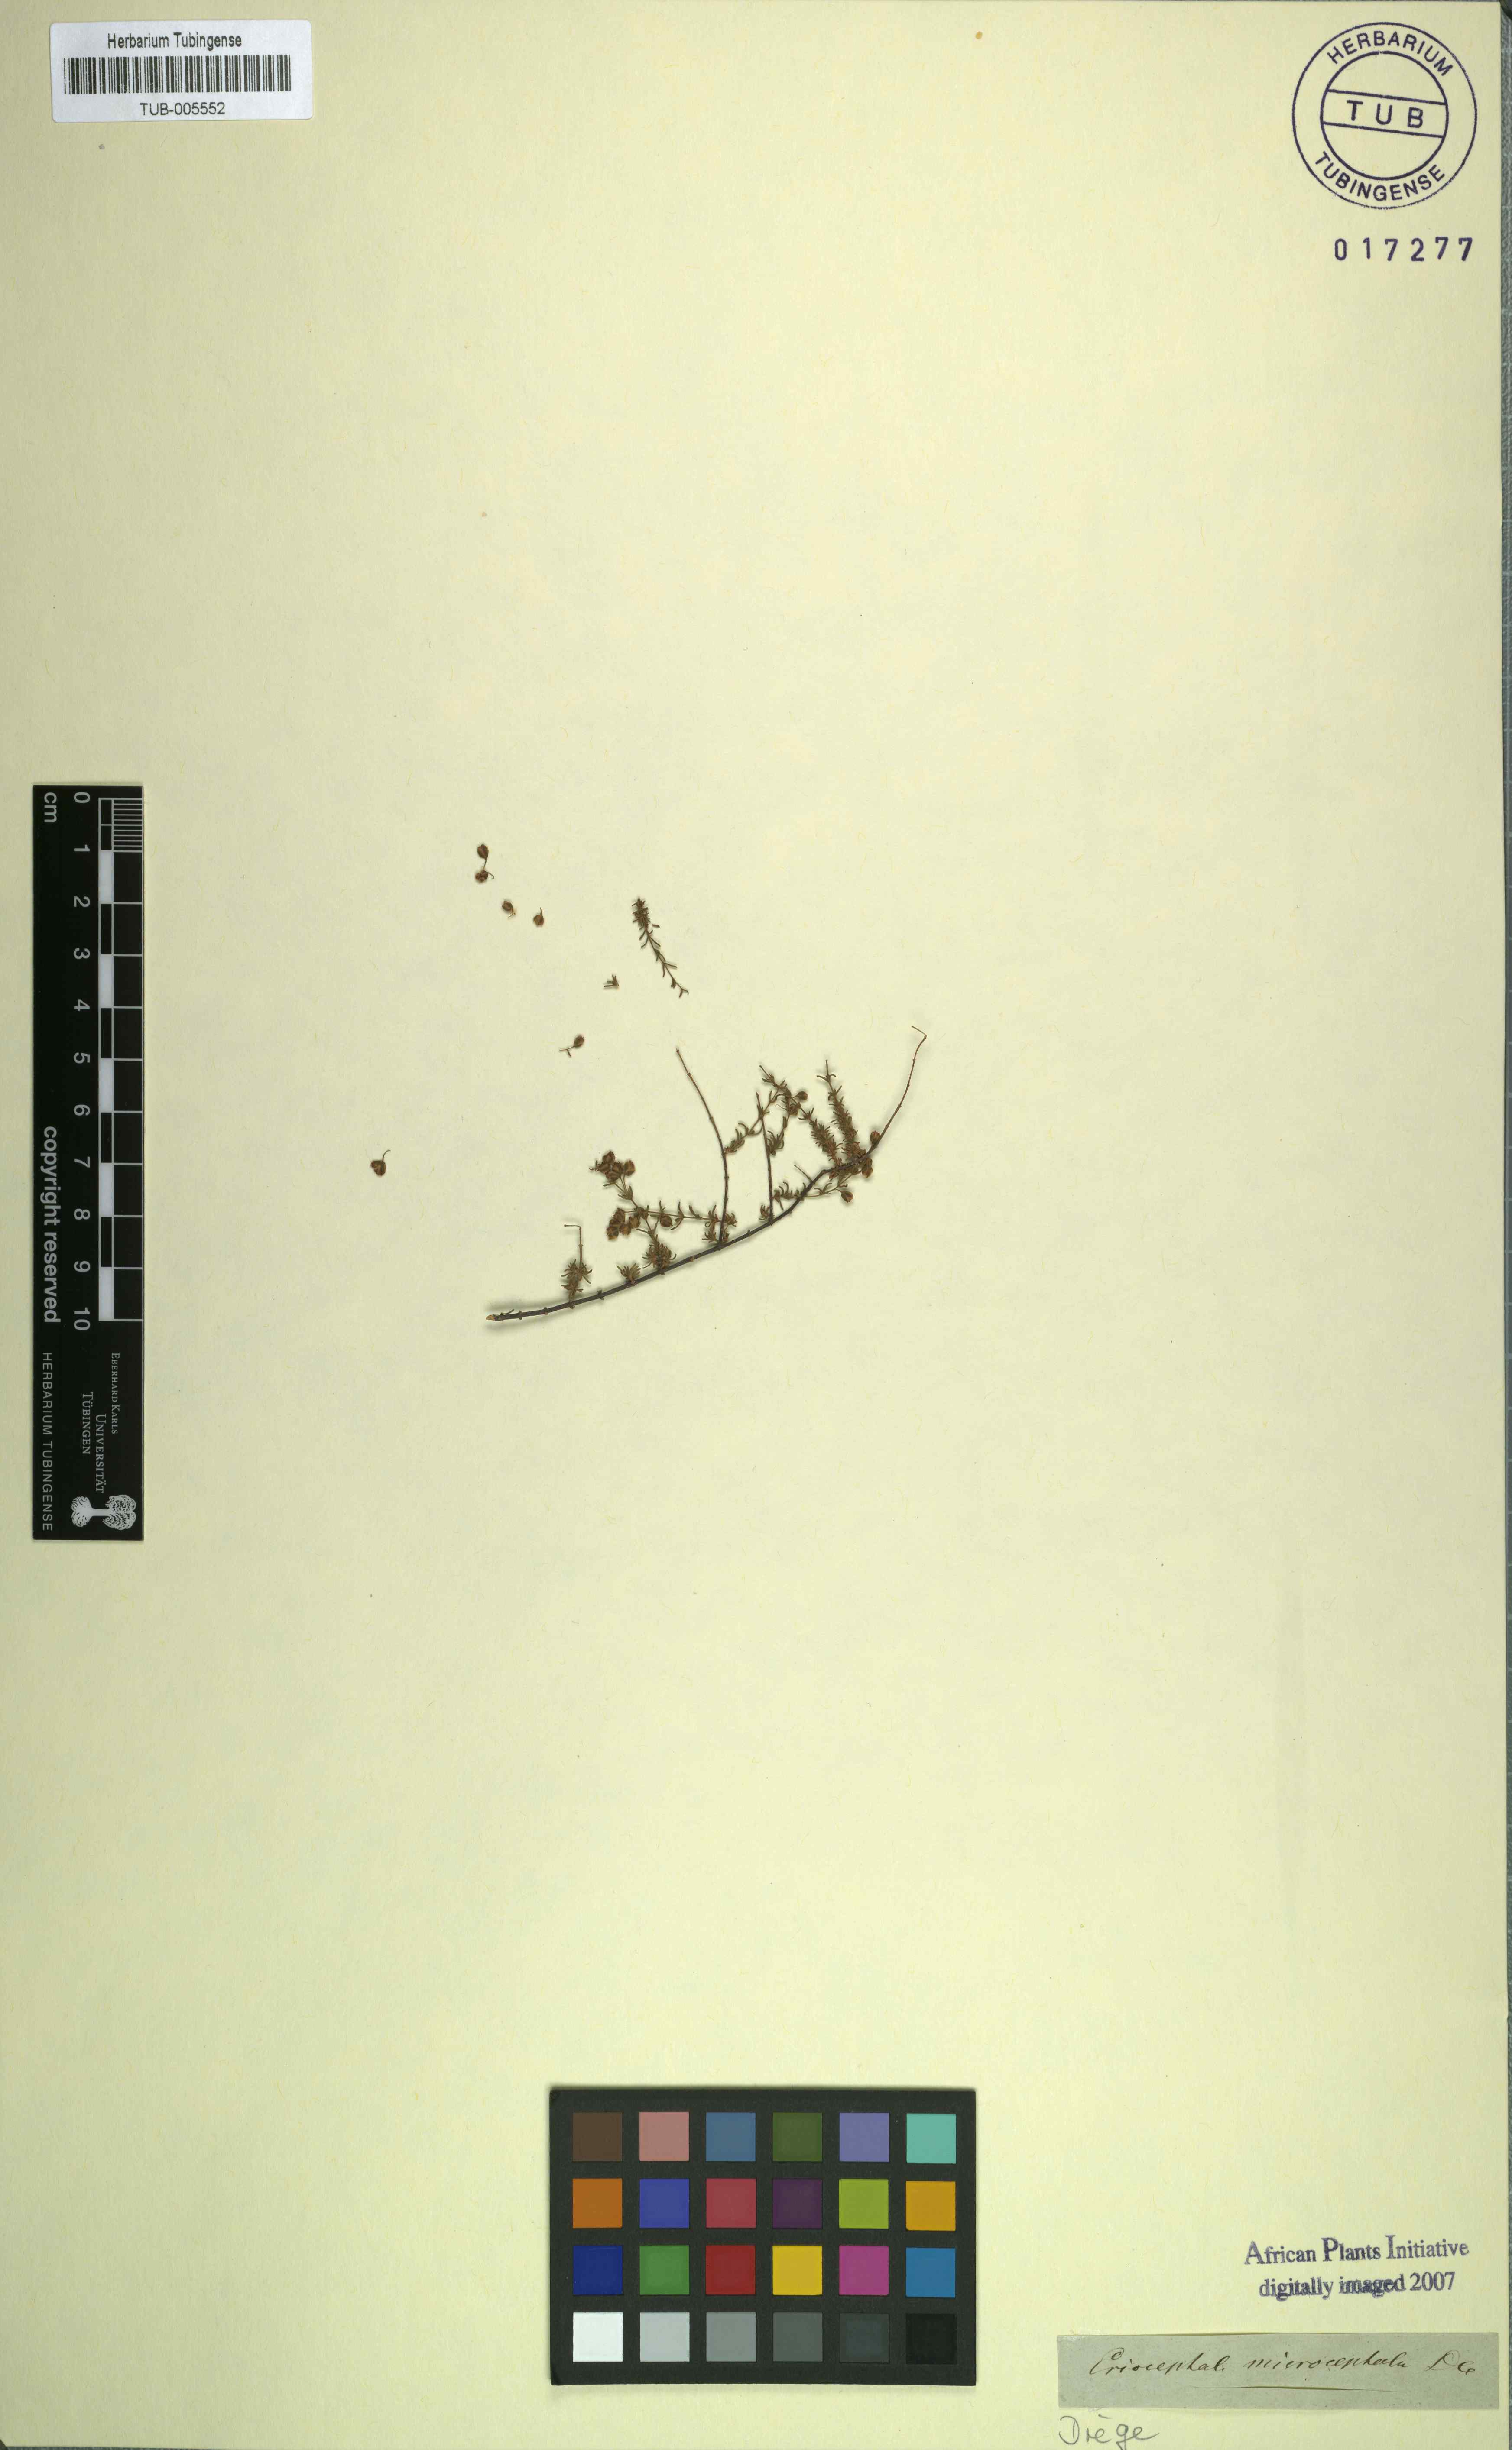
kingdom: Plantae
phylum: Tracheophyta
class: Magnoliopsida
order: Asterales
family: Asteraceae
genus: Eriocephalus
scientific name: Eriocephalus microcephalus
